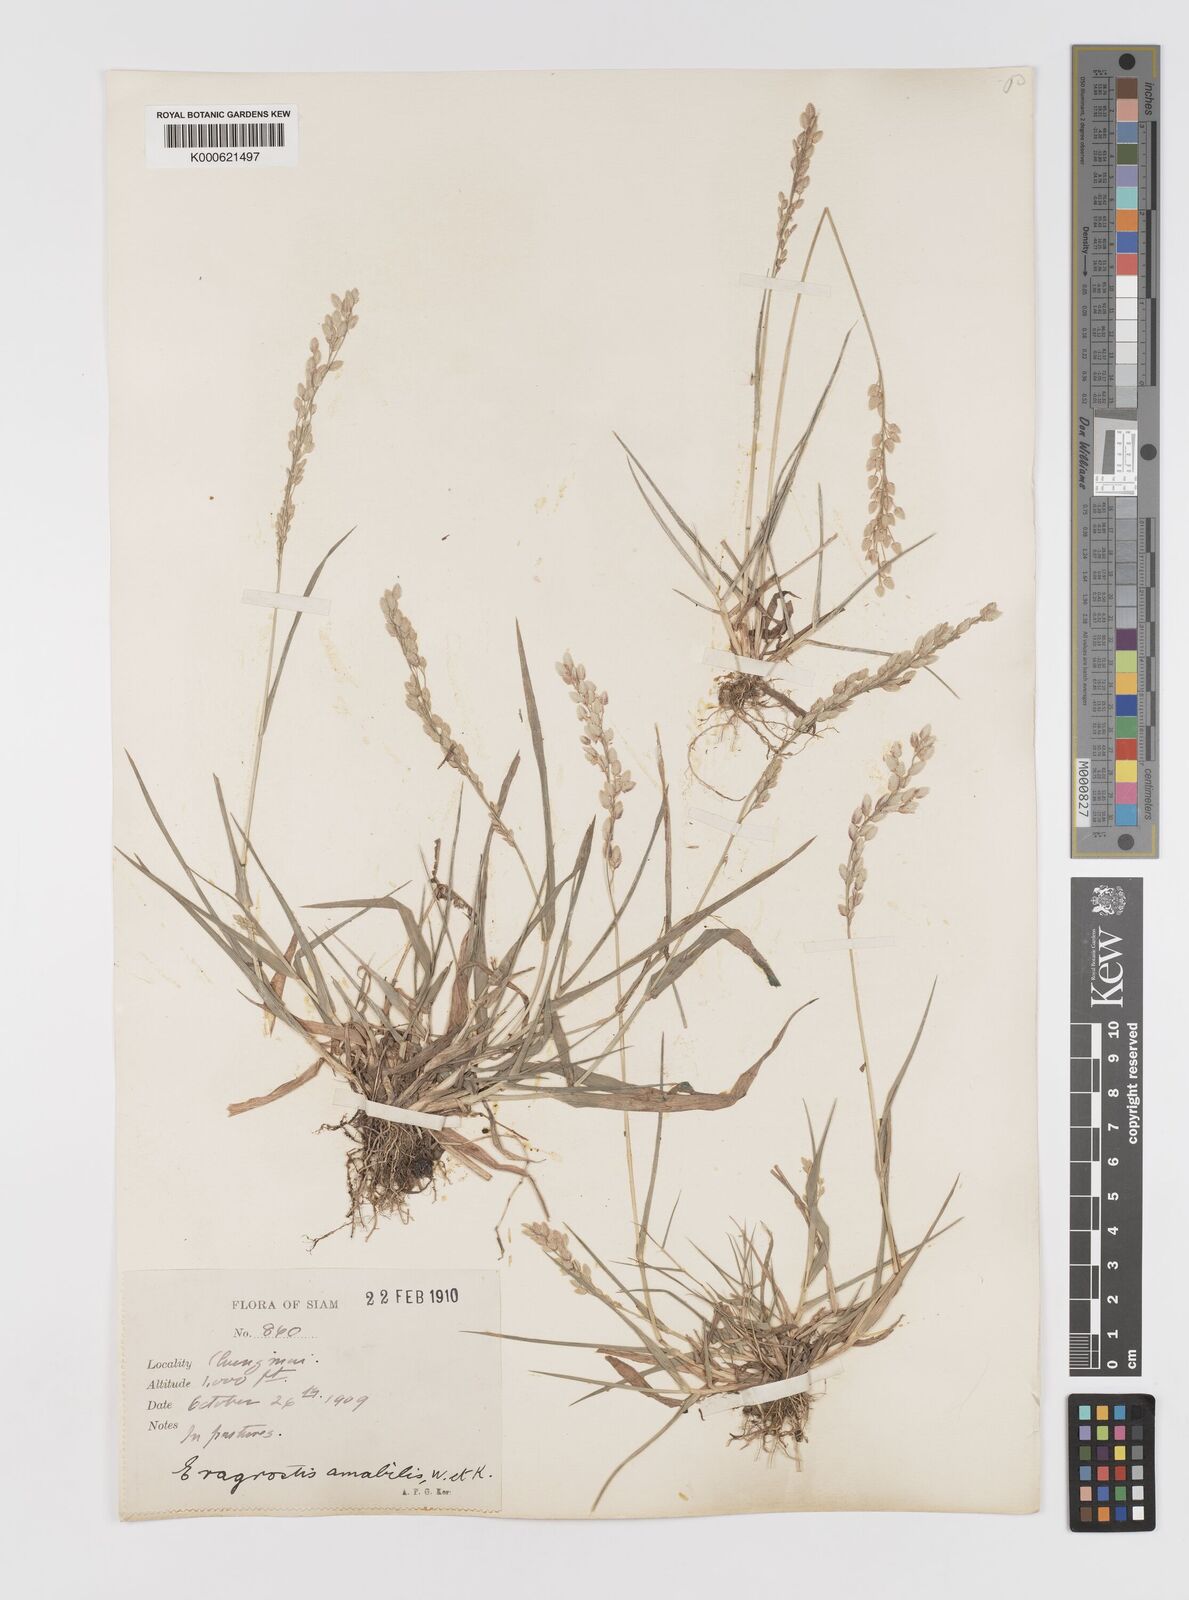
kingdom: Plantae
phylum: Tracheophyta
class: Liliopsida
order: Poales
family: Poaceae
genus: Eragrostis
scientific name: Eragrostis unioloides
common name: Chinese lovegrass
